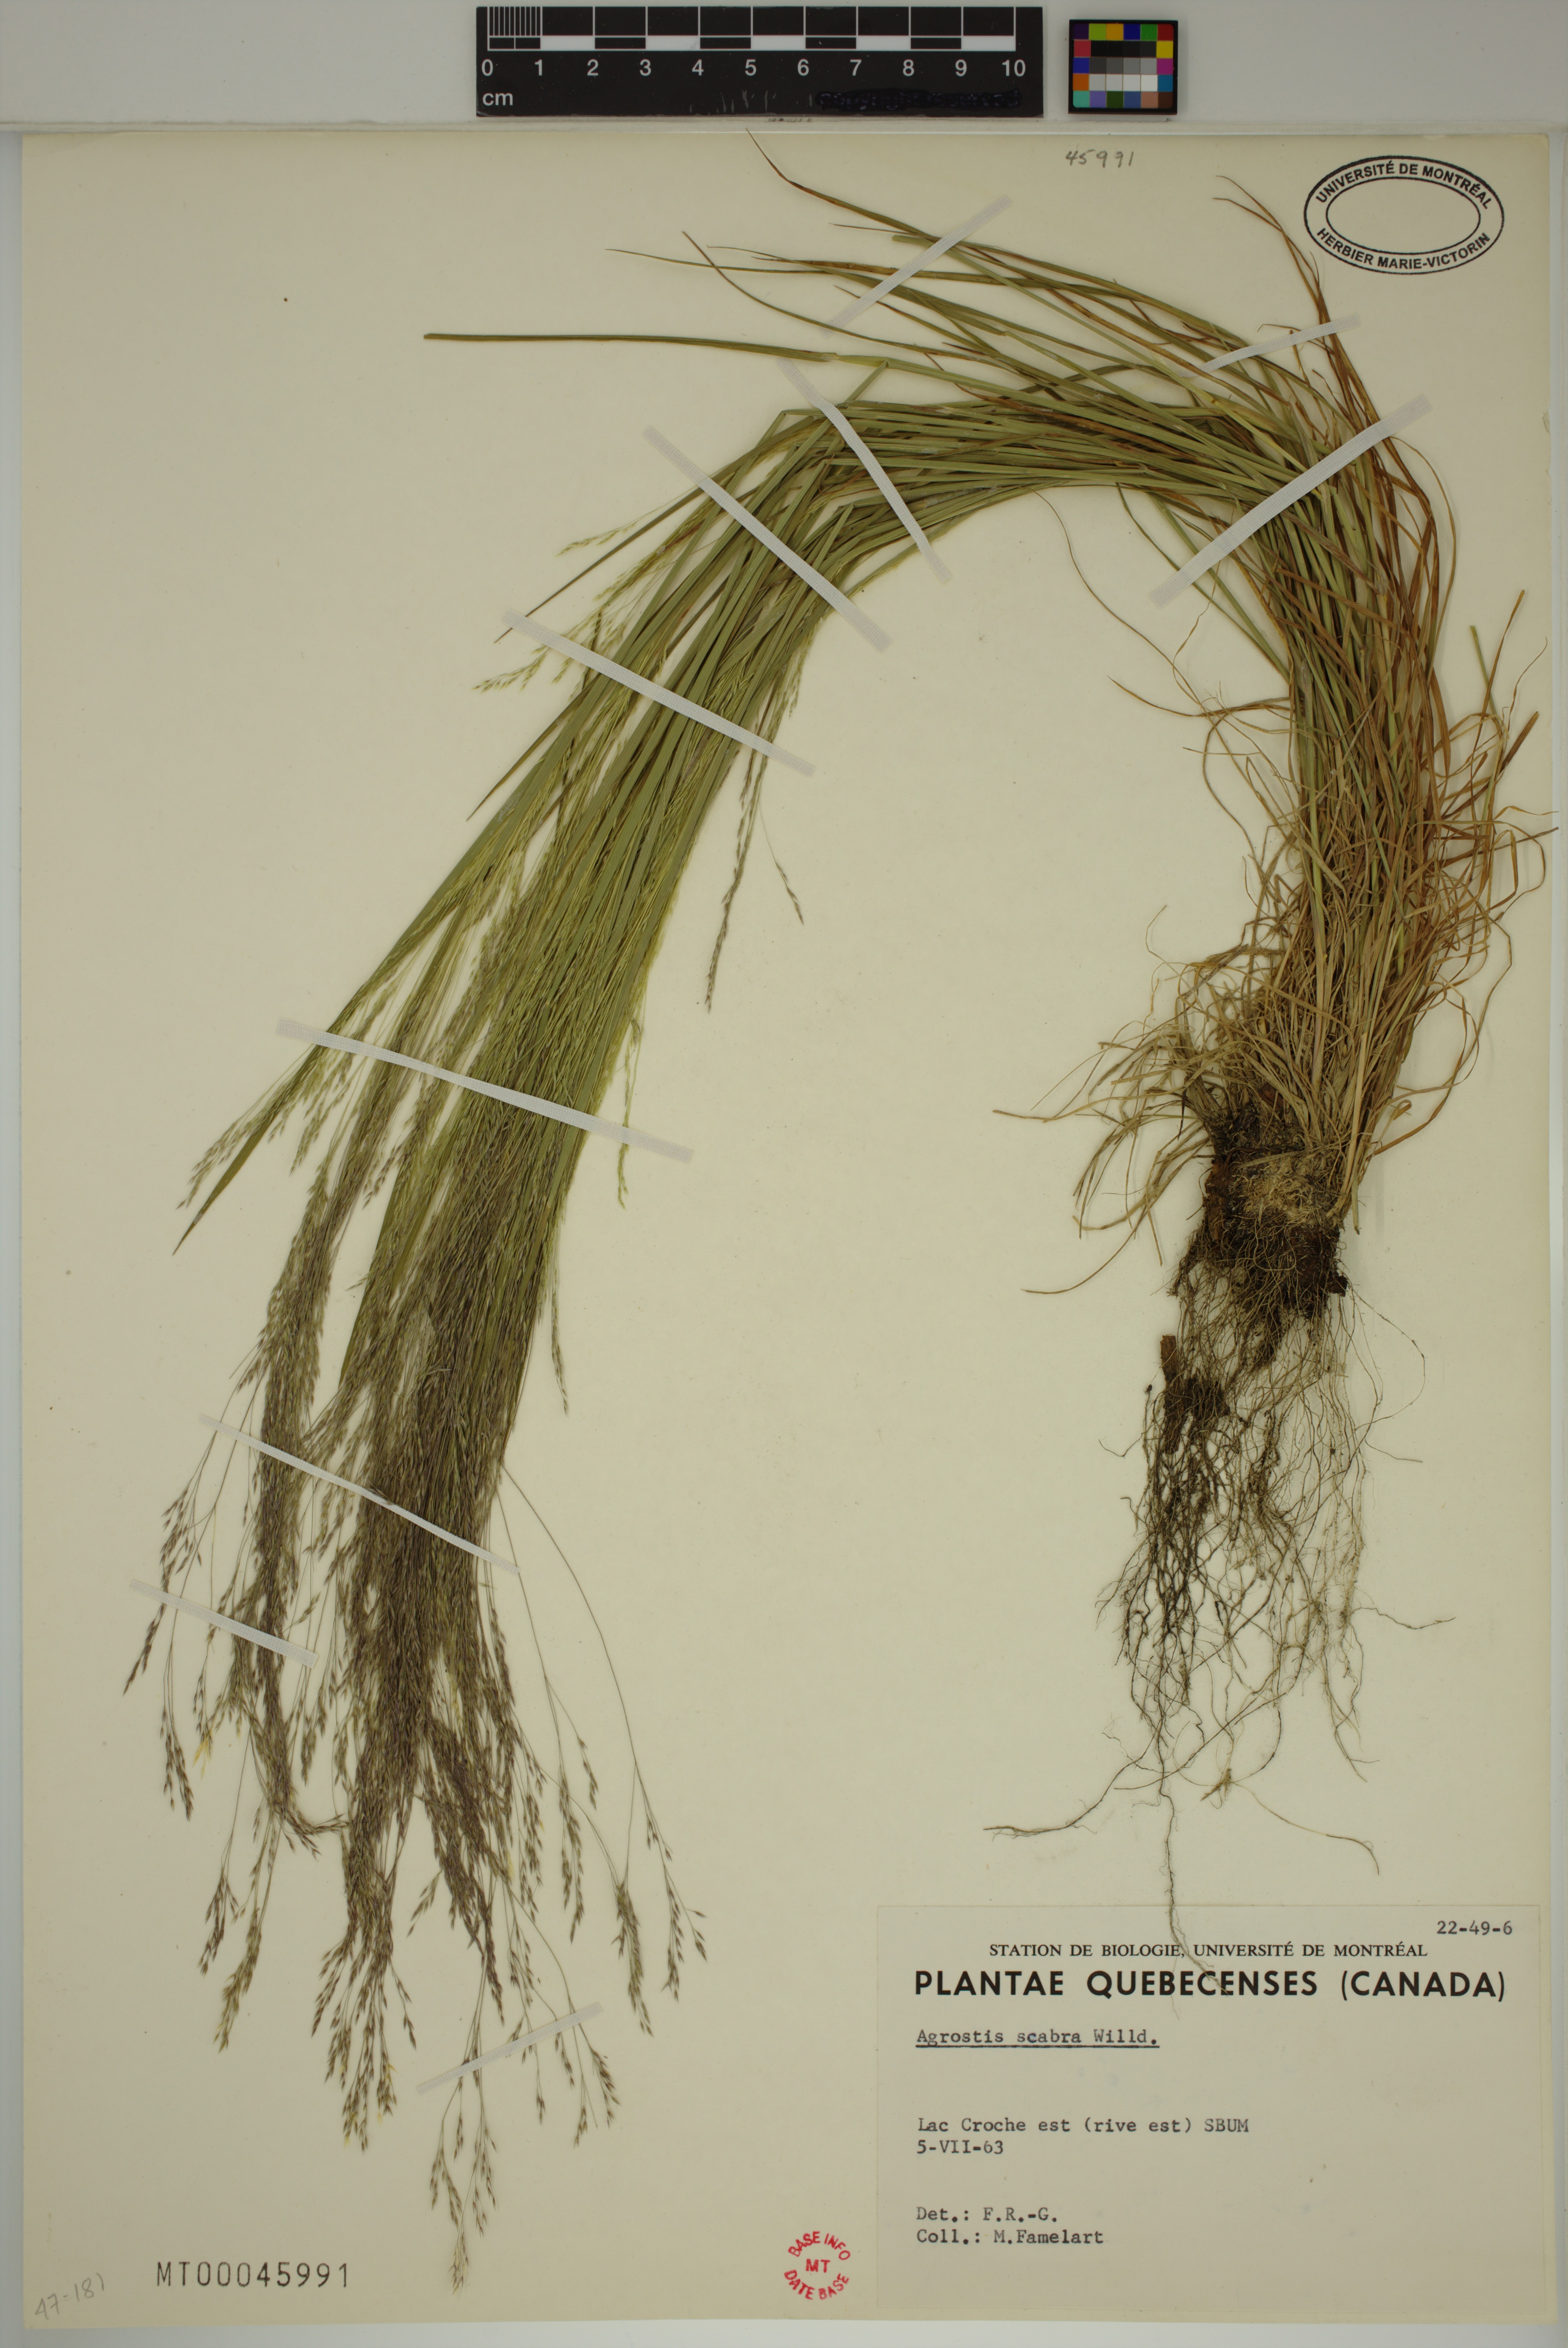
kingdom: Plantae
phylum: Tracheophyta
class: Liliopsida
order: Poales
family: Poaceae
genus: Agrostis
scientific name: Agrostis scabra
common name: Rough bent
